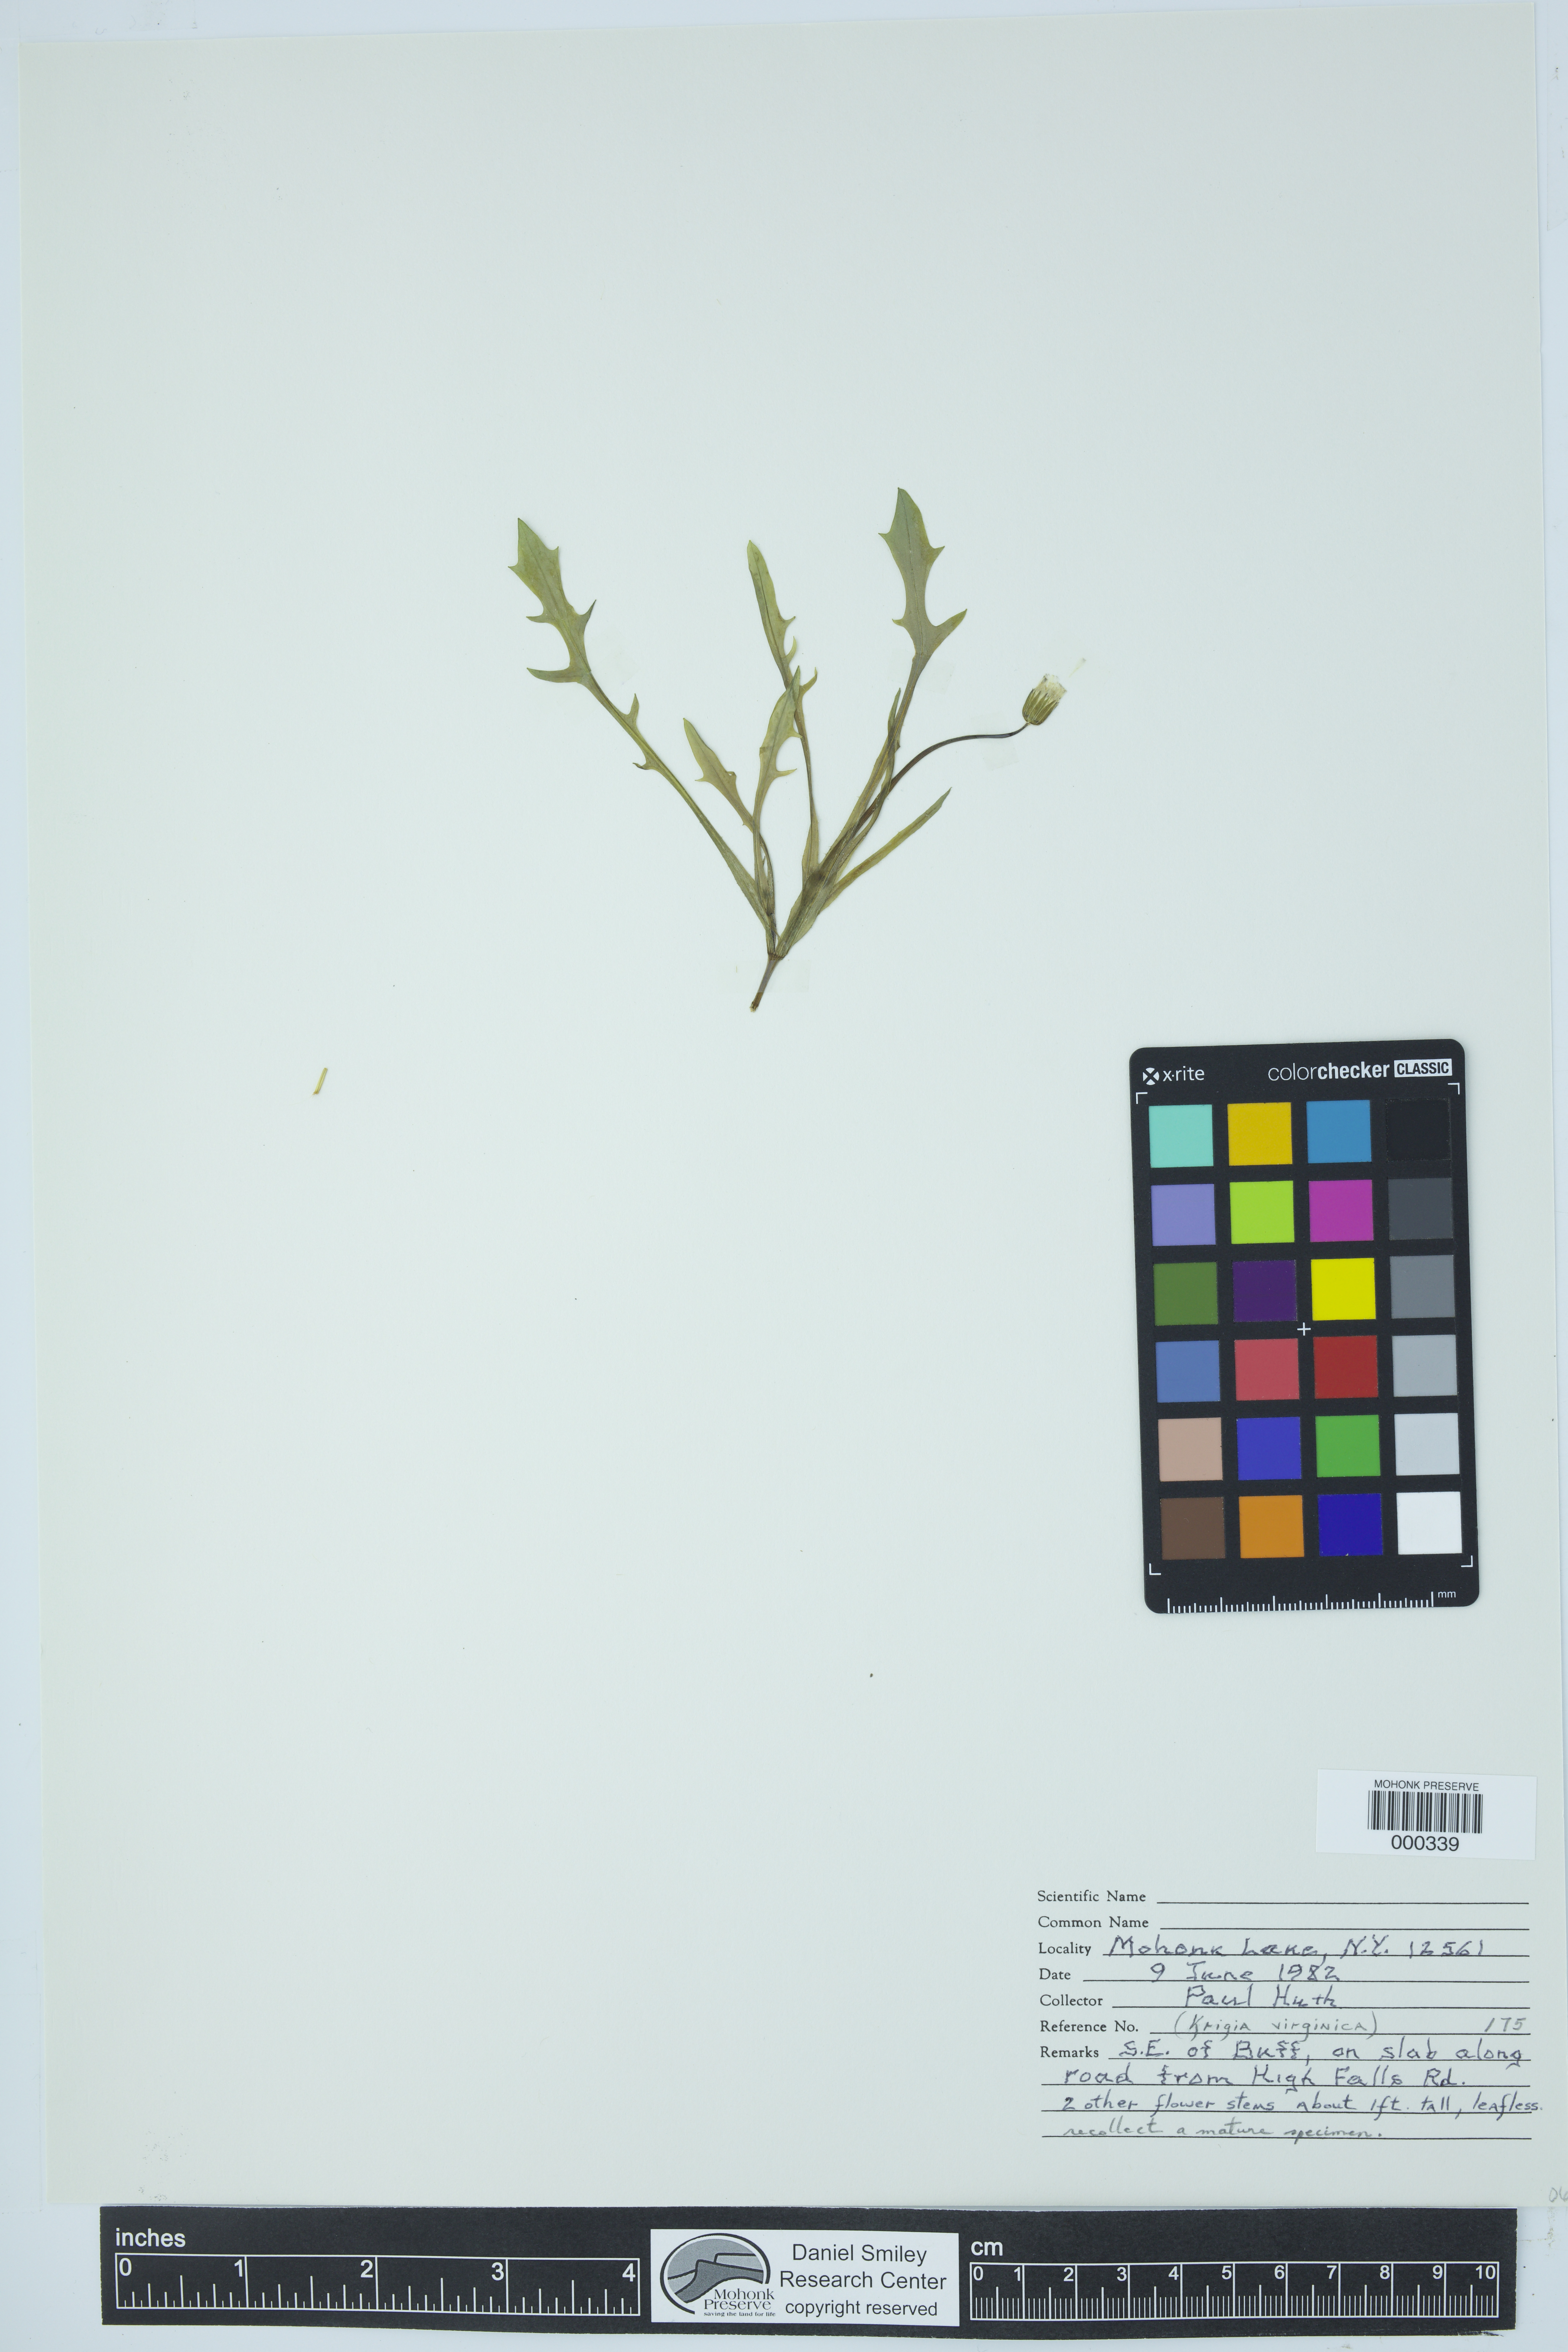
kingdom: Plantae
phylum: Tracheophyta
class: Magnoliopsida
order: Asterales
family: Asteraceae
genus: Krigia
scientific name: Krigia virginica
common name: Virginia dwarf-dandelion
